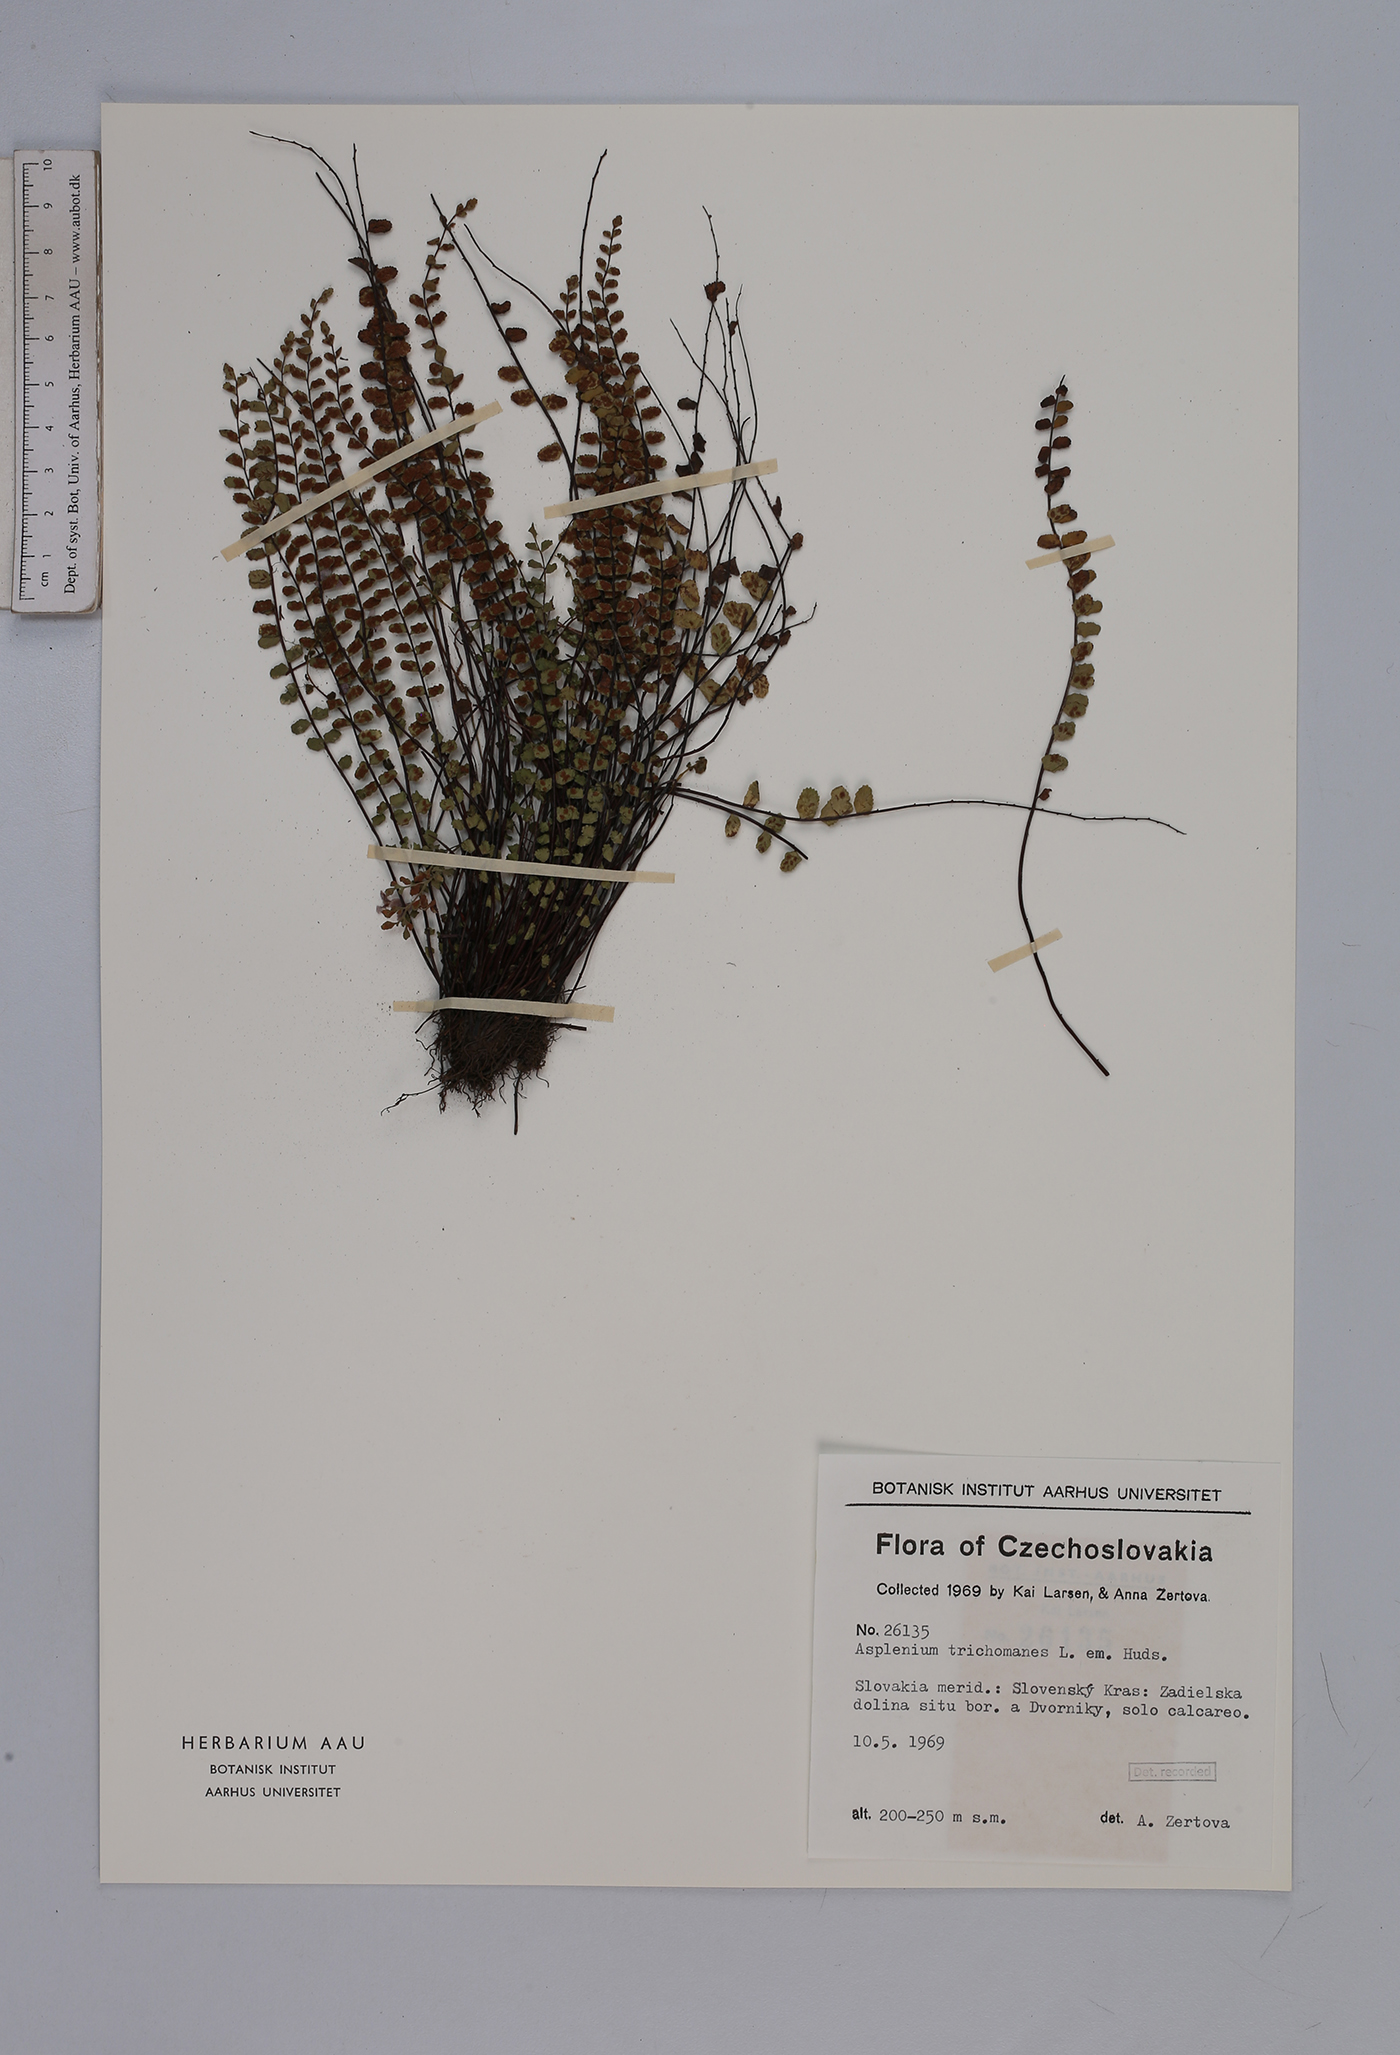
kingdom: Plantae
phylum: Tracheophyta
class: Polypodiopsida
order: Polypodiales
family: Aspleniaceae
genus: Asplenium
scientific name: Asplenium trichomanes
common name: Maidenhair spleenwort
